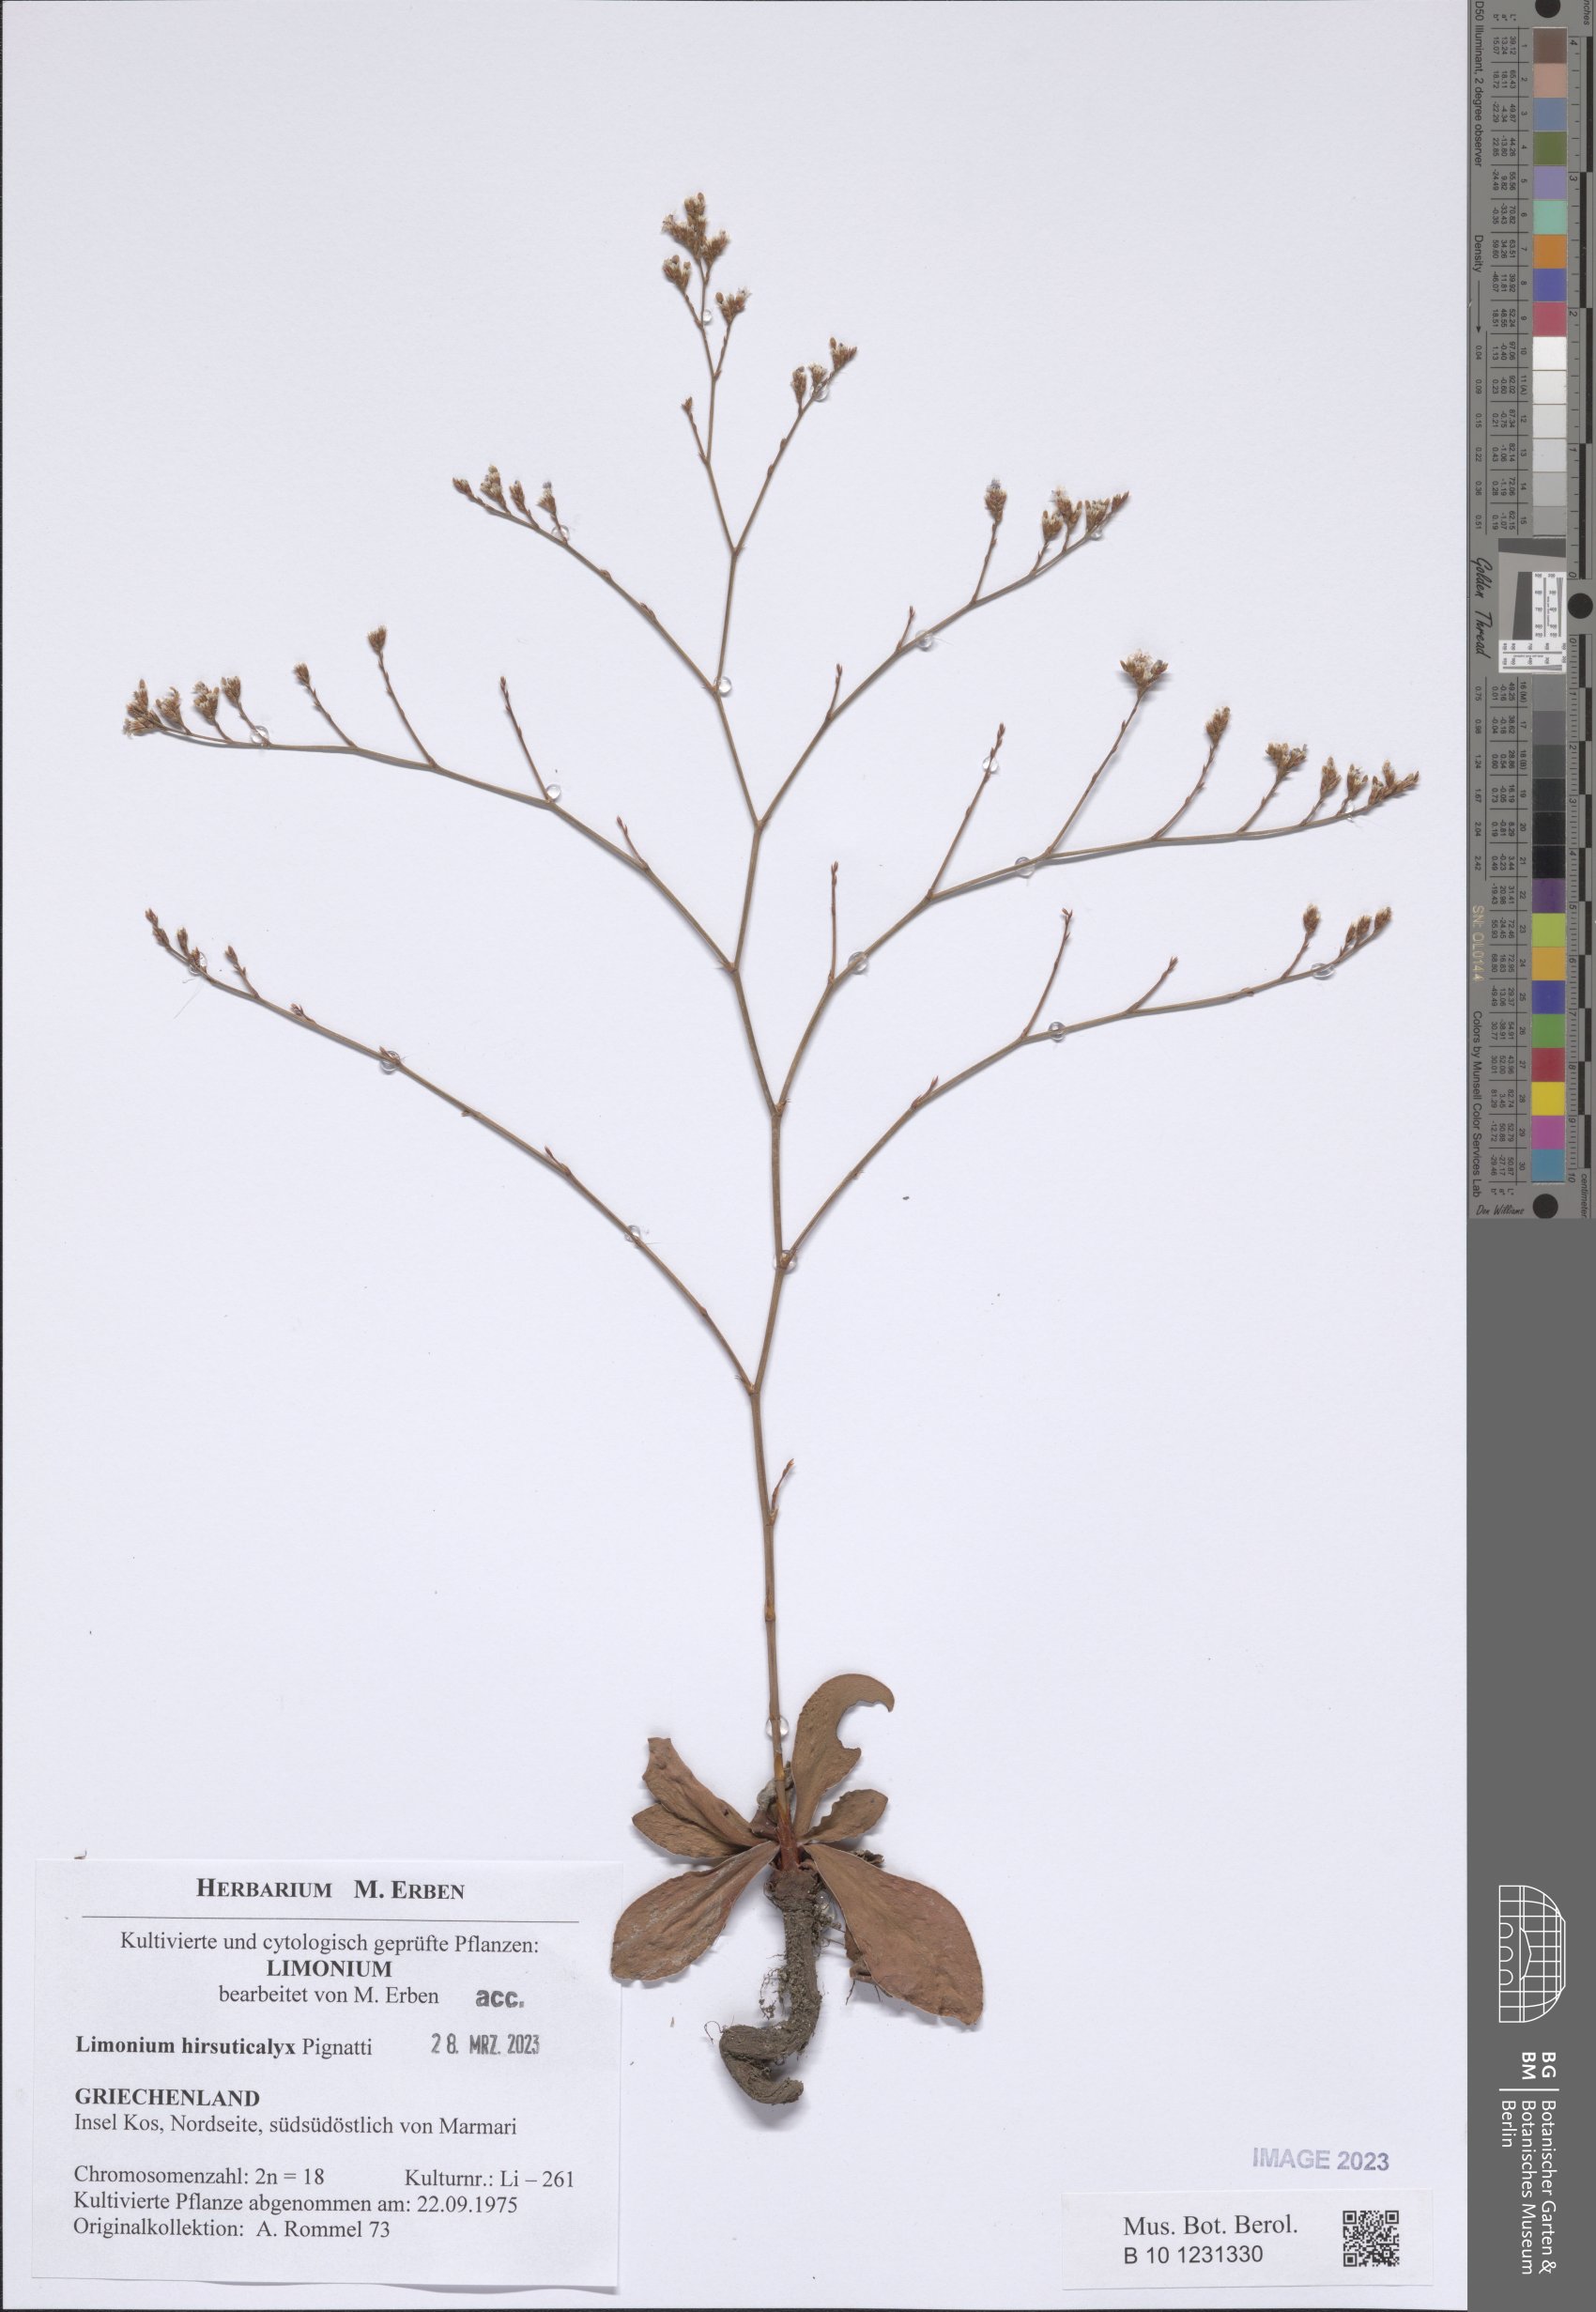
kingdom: Plantae
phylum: Tracheophyta
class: Magnoliopsida
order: Caryophyllales
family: Plumbaginaceae
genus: Limonium
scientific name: Limonium hirsuticalyx
